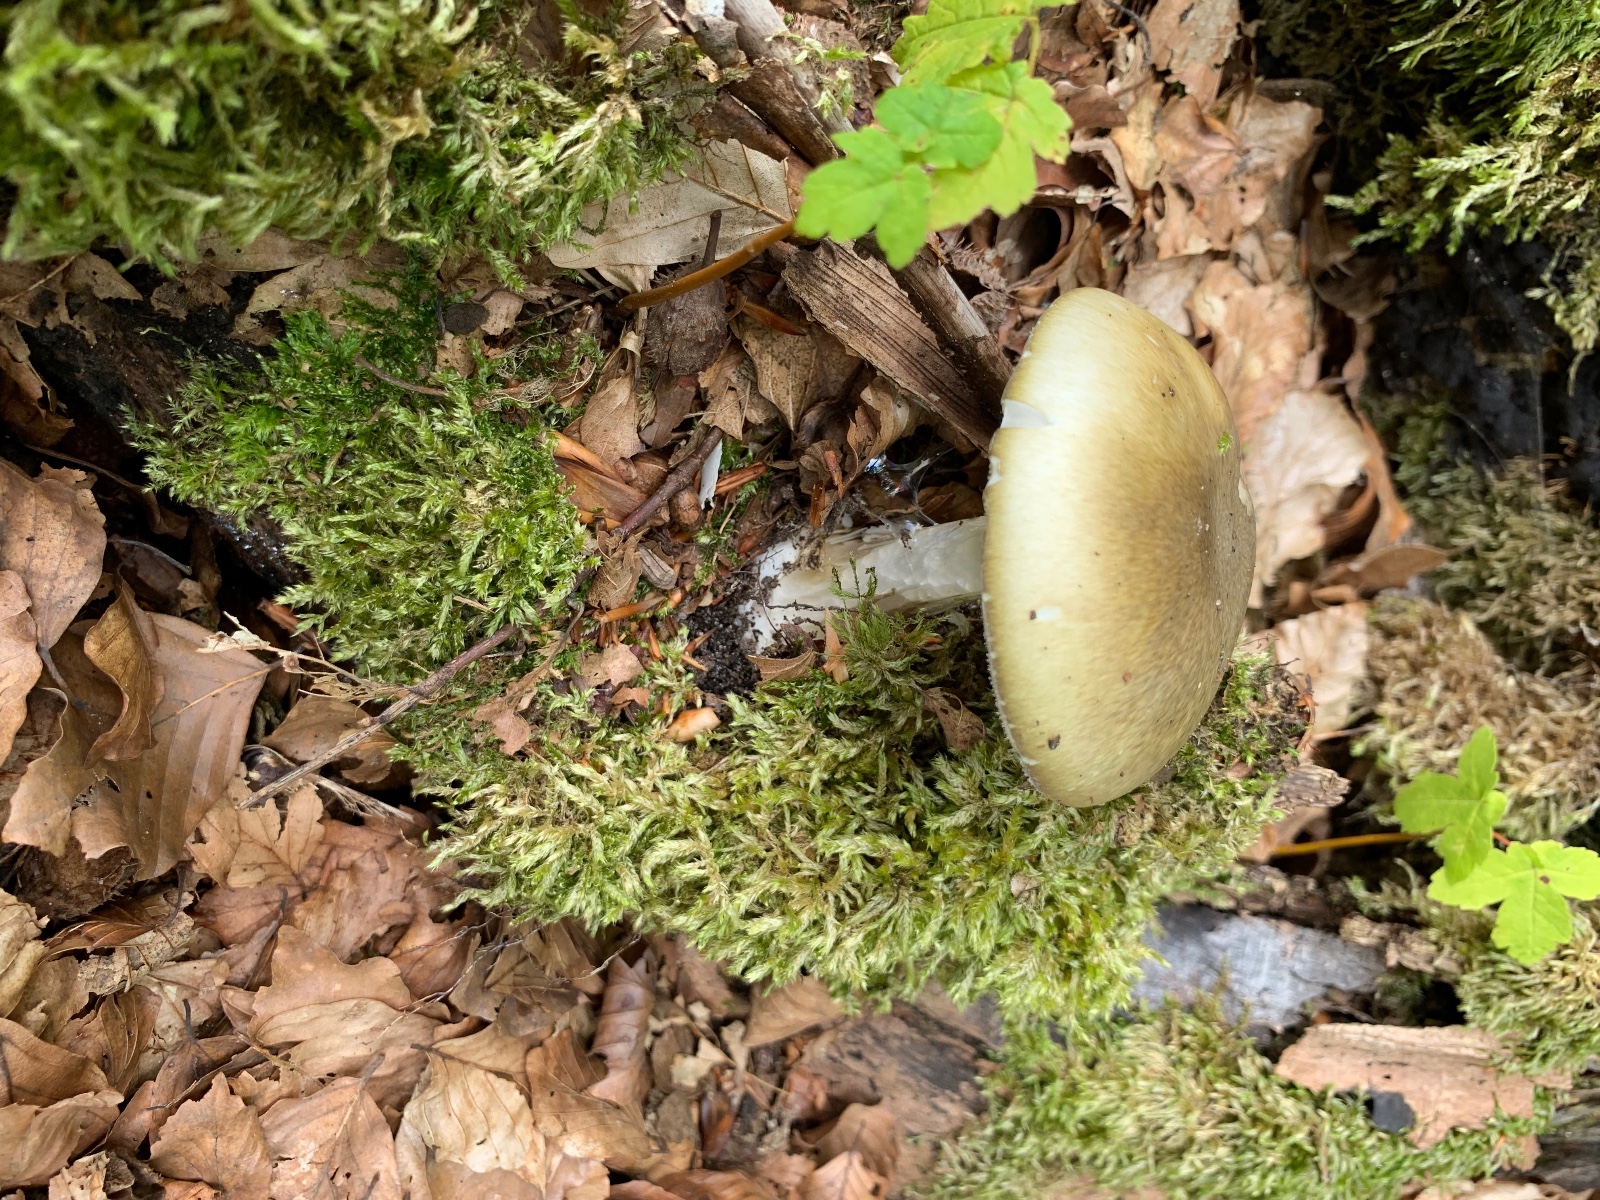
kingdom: Fungi
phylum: Basidiomycota
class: Agaricomycetes
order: Agaricales
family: Amanitaceae
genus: Amanita
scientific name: Amanita phalloides
